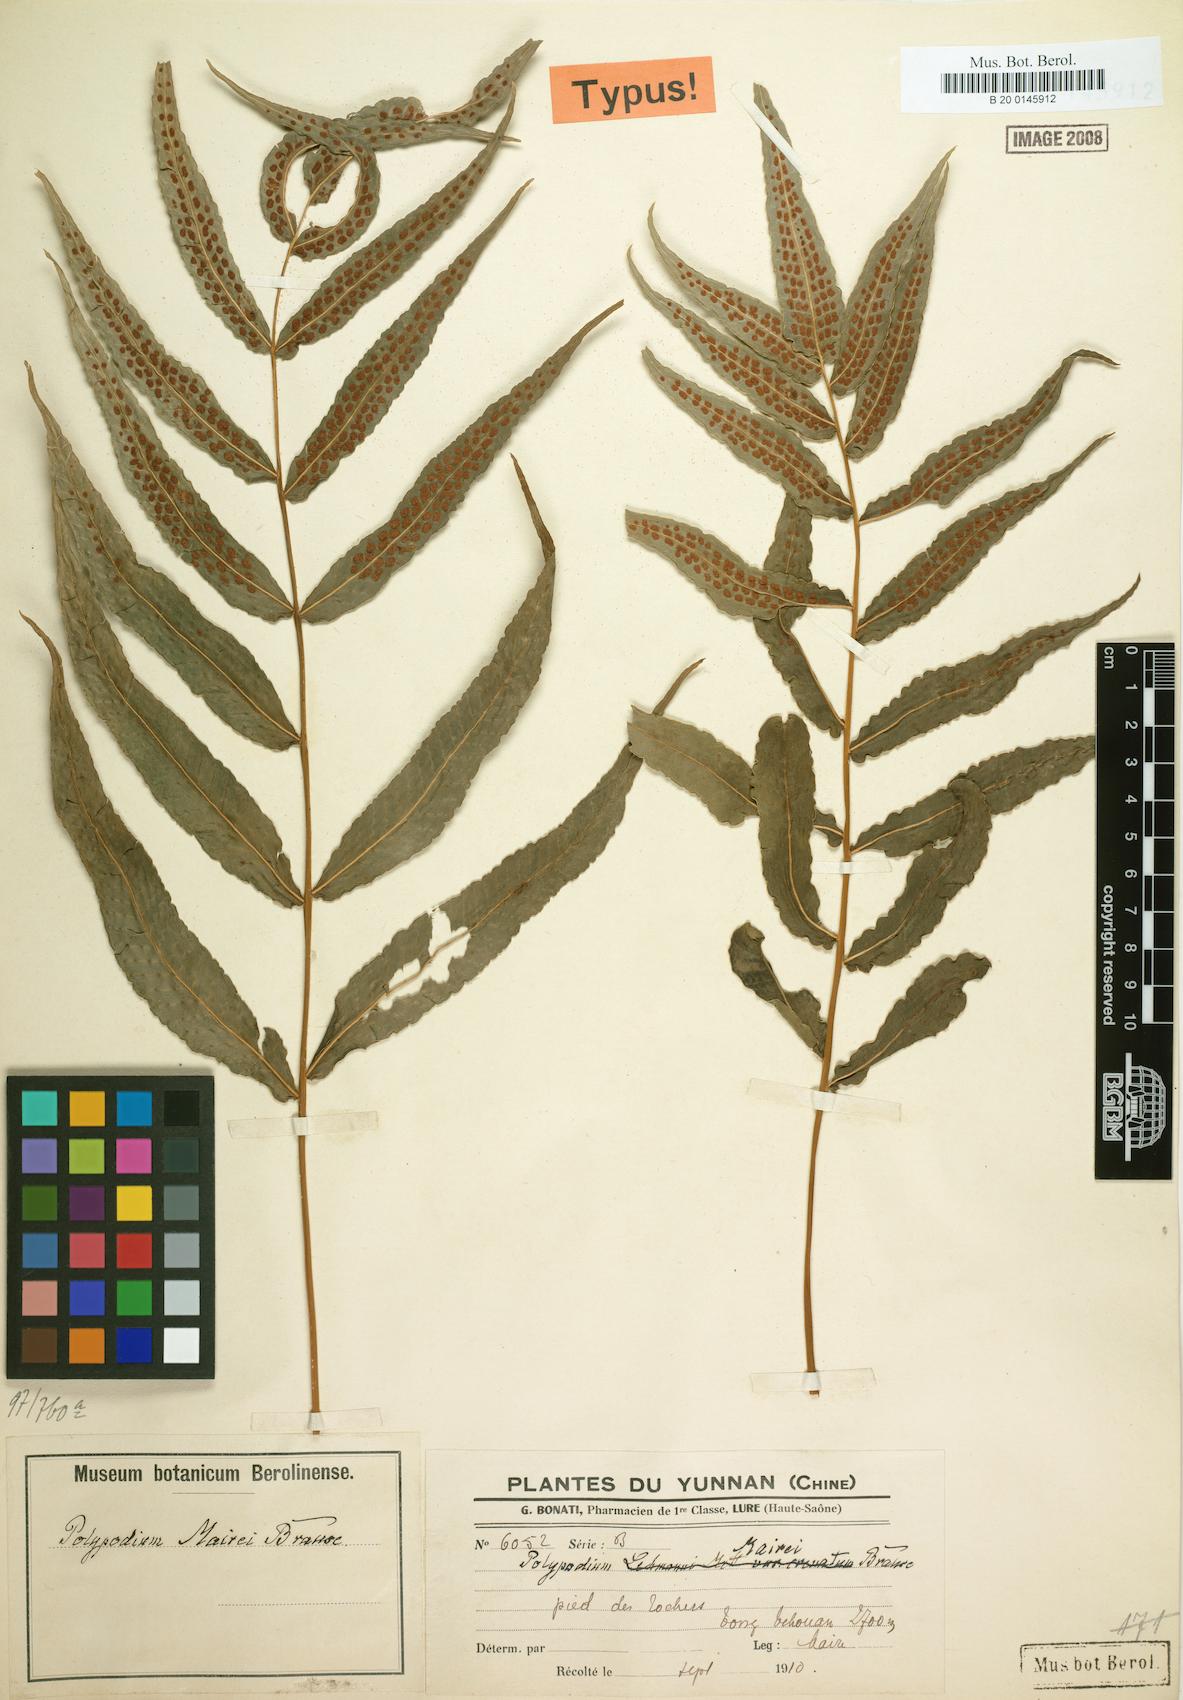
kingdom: Plantae
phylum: Tracheophyta
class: Polypodiopsida
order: Polypodiales
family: Polypodiaceae
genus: Selliguea
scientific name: Selliguea moulmeinensis
